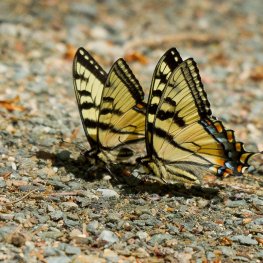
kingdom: Animalia
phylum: Arthropoda
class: Insecta
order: Lepidoptera
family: Papilionidae
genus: Pterourus
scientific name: Pterourus canadensis
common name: Canadian Tiger Swallowtail
